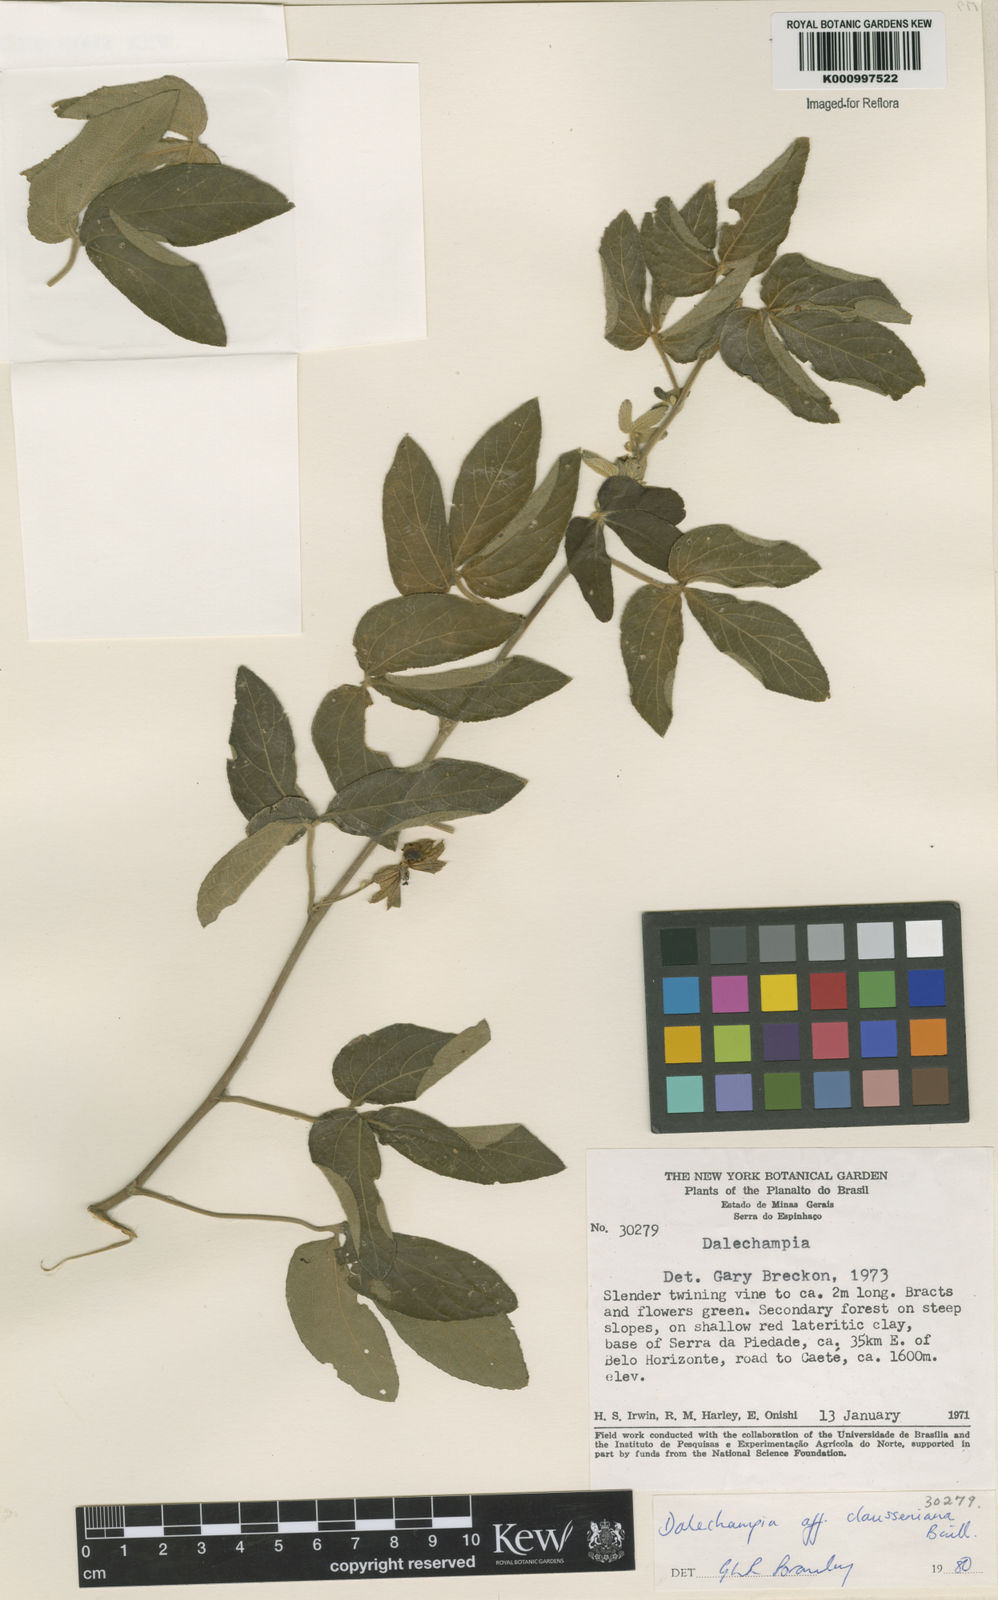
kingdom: Plantae
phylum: Tracheophyta
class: Magnoliopsida
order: Malpighiales
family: Euphorbiaceae
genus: Dalechampia
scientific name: Dalechampia clausseniana
